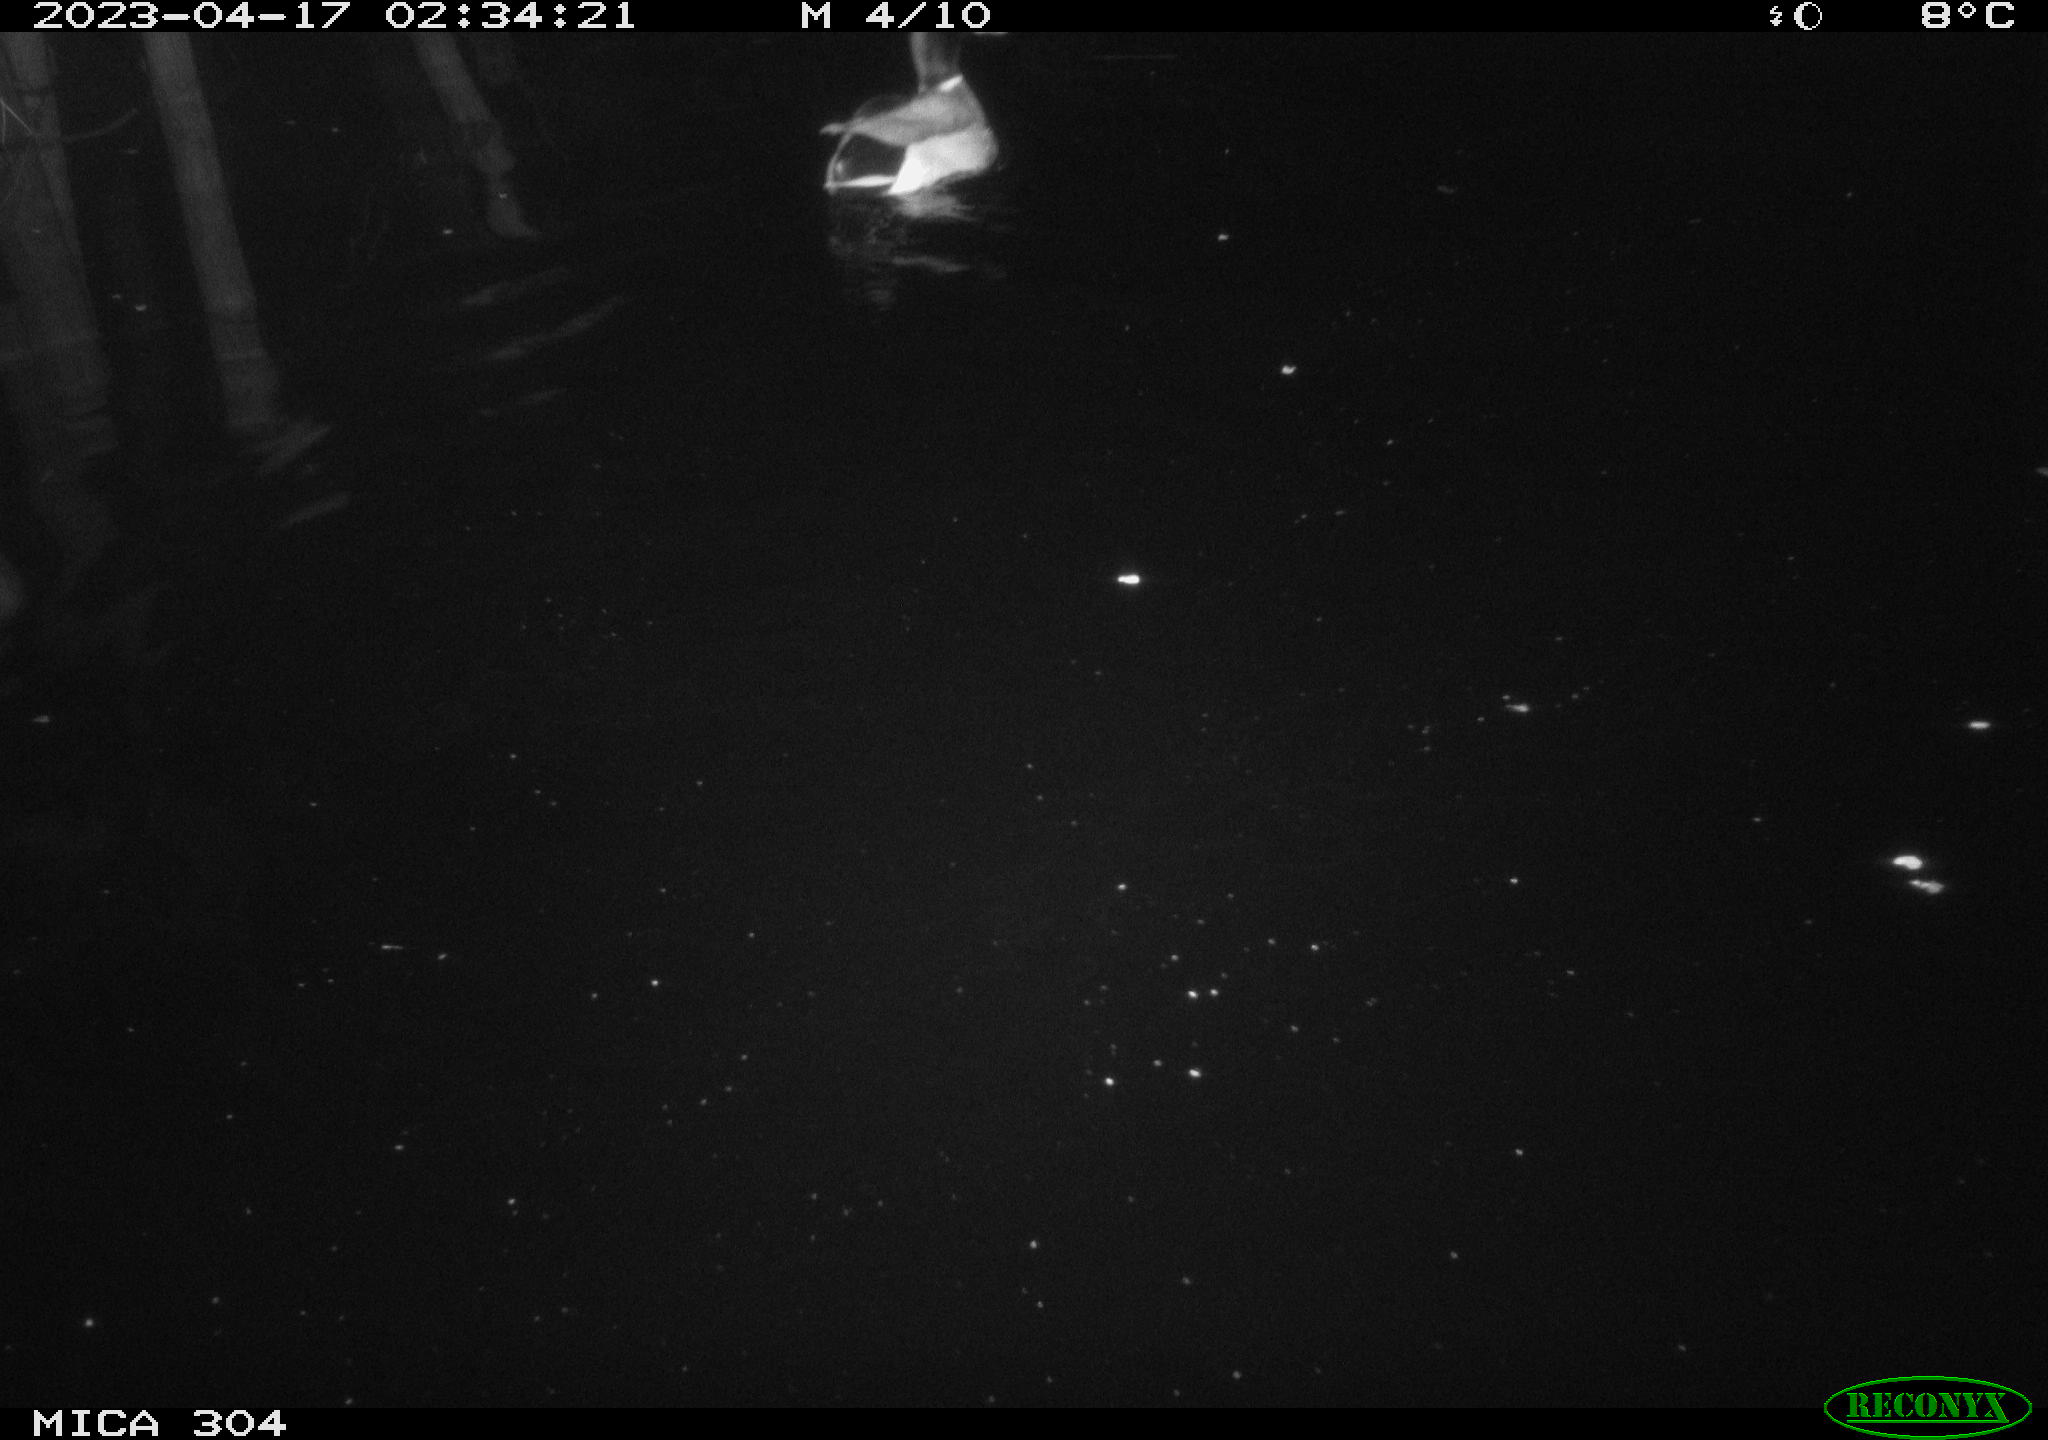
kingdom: Animalia
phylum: Chordata
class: Aves
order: Anseriformes
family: Anatidae
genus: Anas
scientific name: Anas
